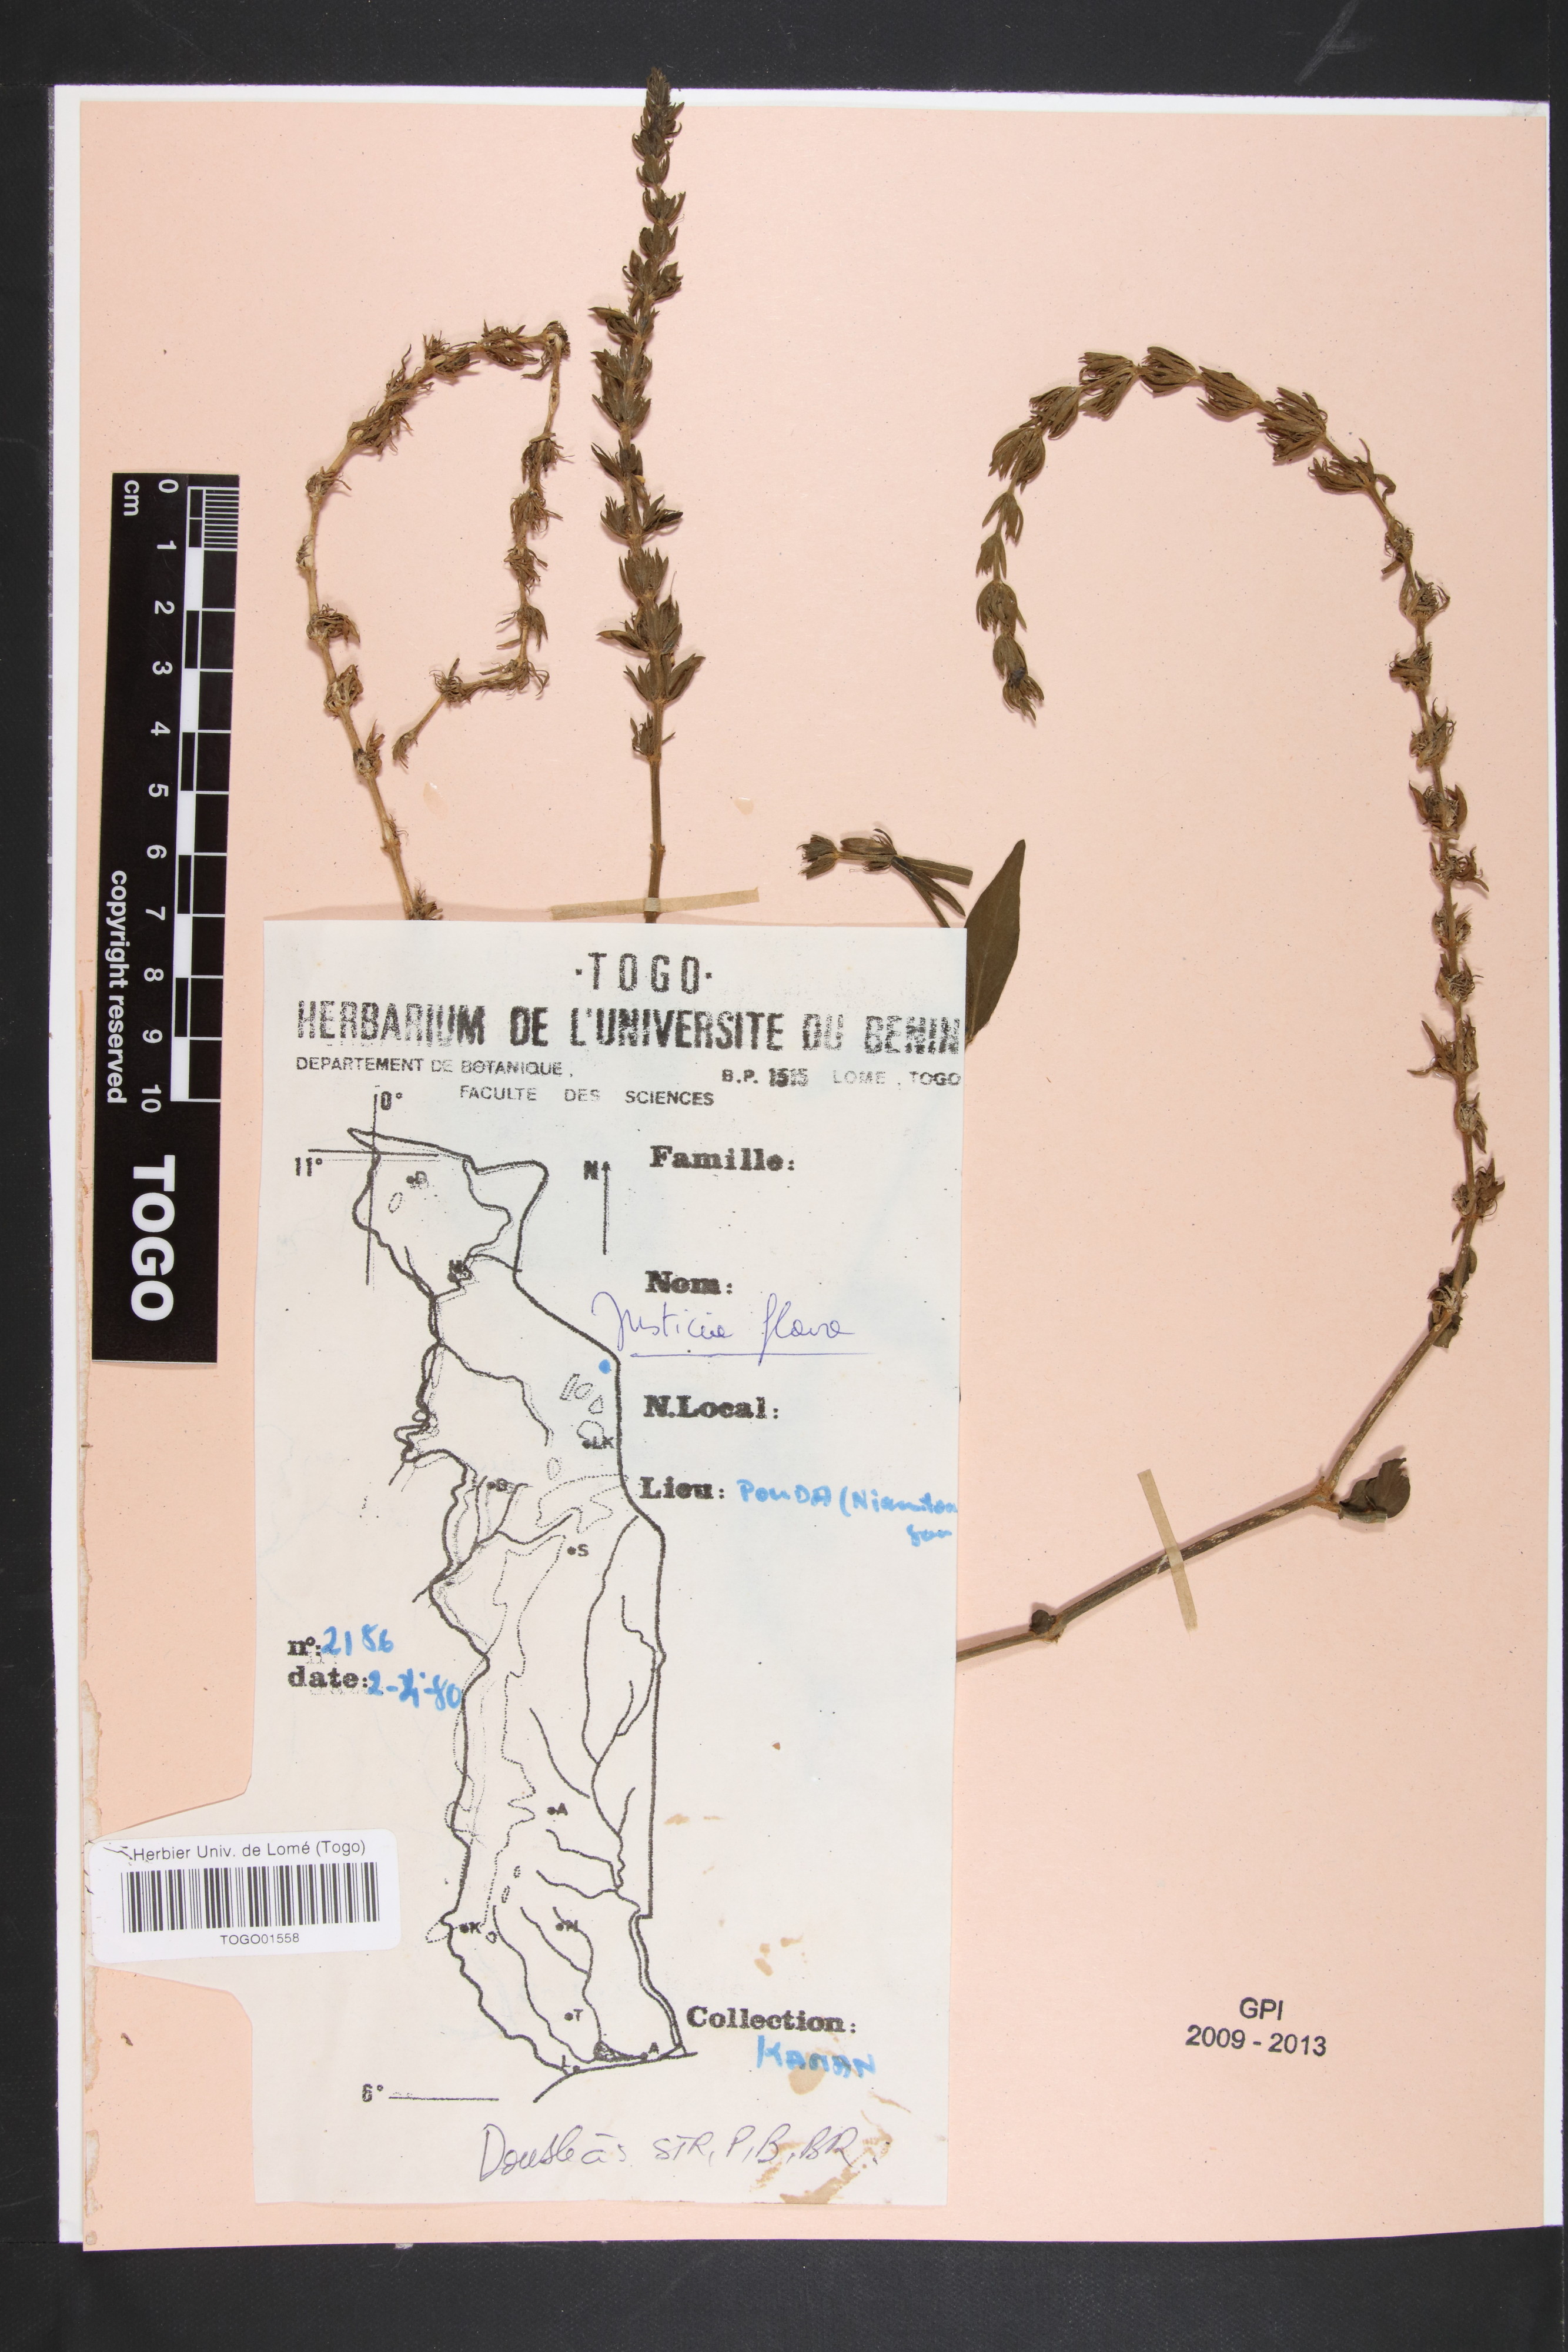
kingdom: Plantae
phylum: Tracheophyta
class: Magnoliopsida
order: Lamiales
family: Acanthaceae
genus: Justicia
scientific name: Justicia flava
